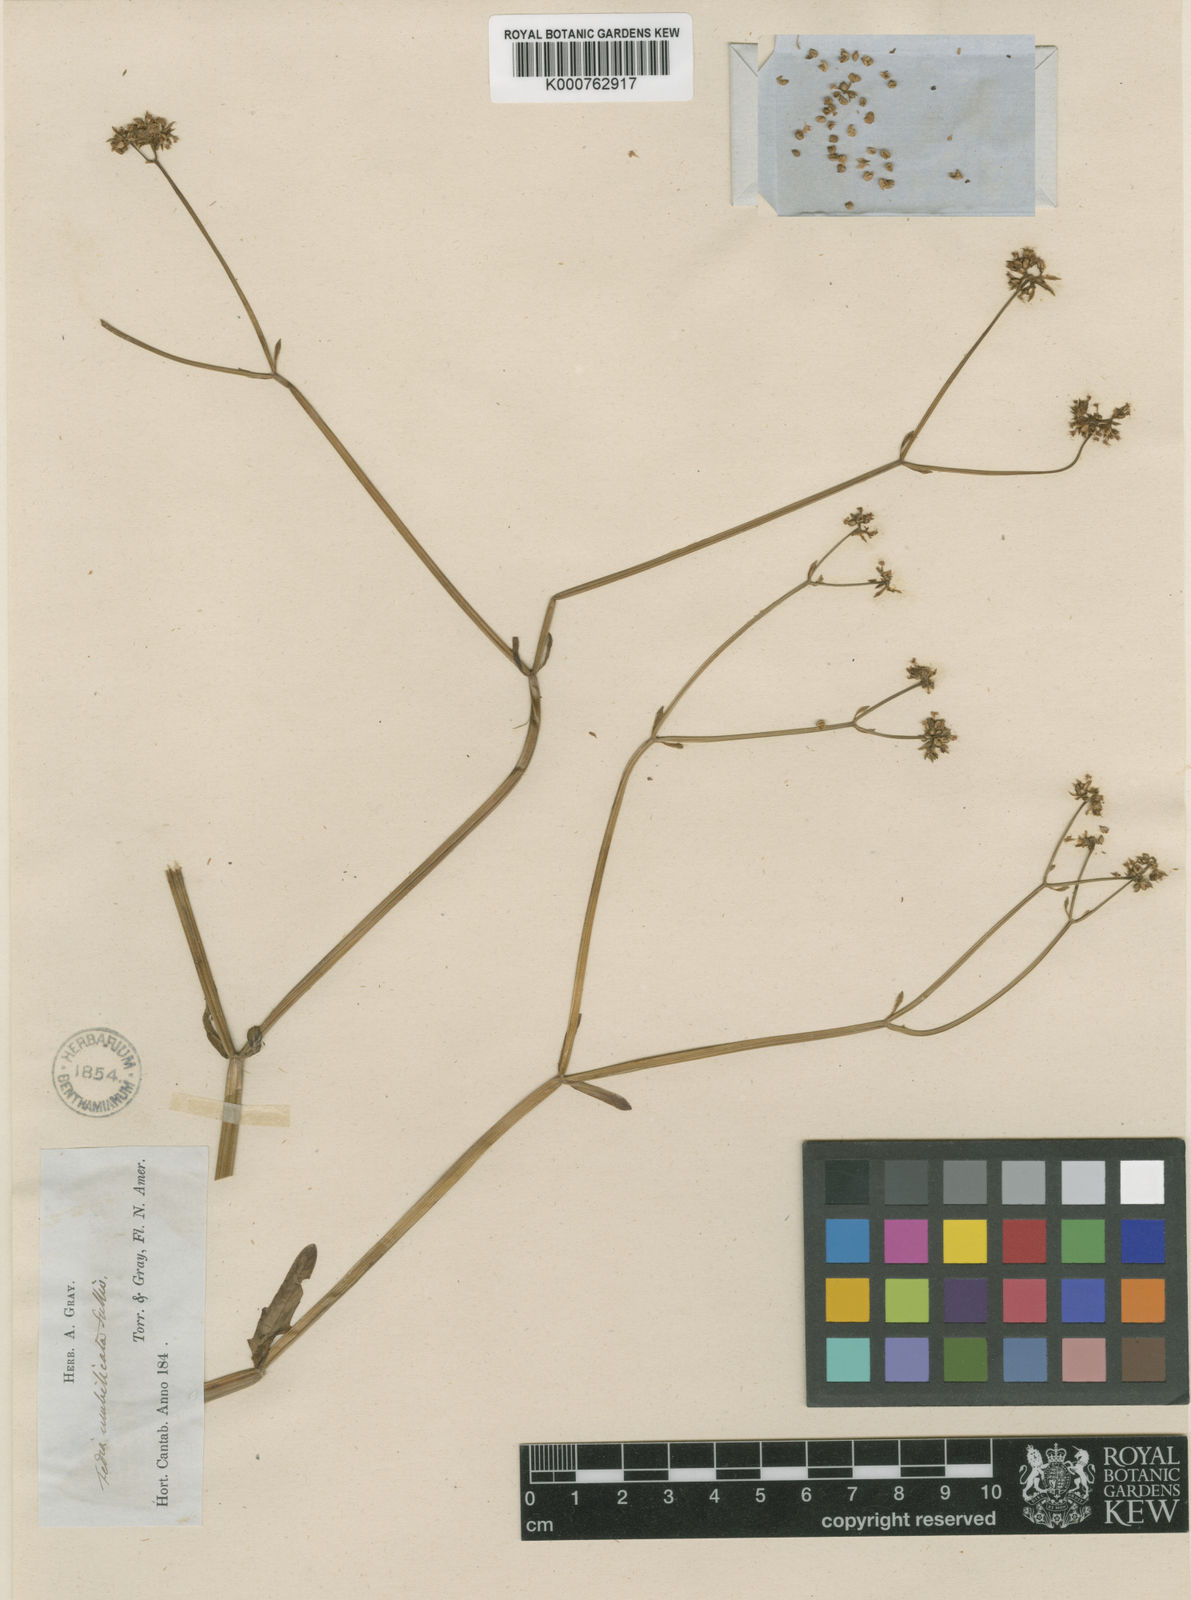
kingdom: Plantae
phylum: Tracheophyta
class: Magnoliopsida
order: Dipsacales
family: Caprifoliaceae
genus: Valerianella
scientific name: Valerianella radiata
